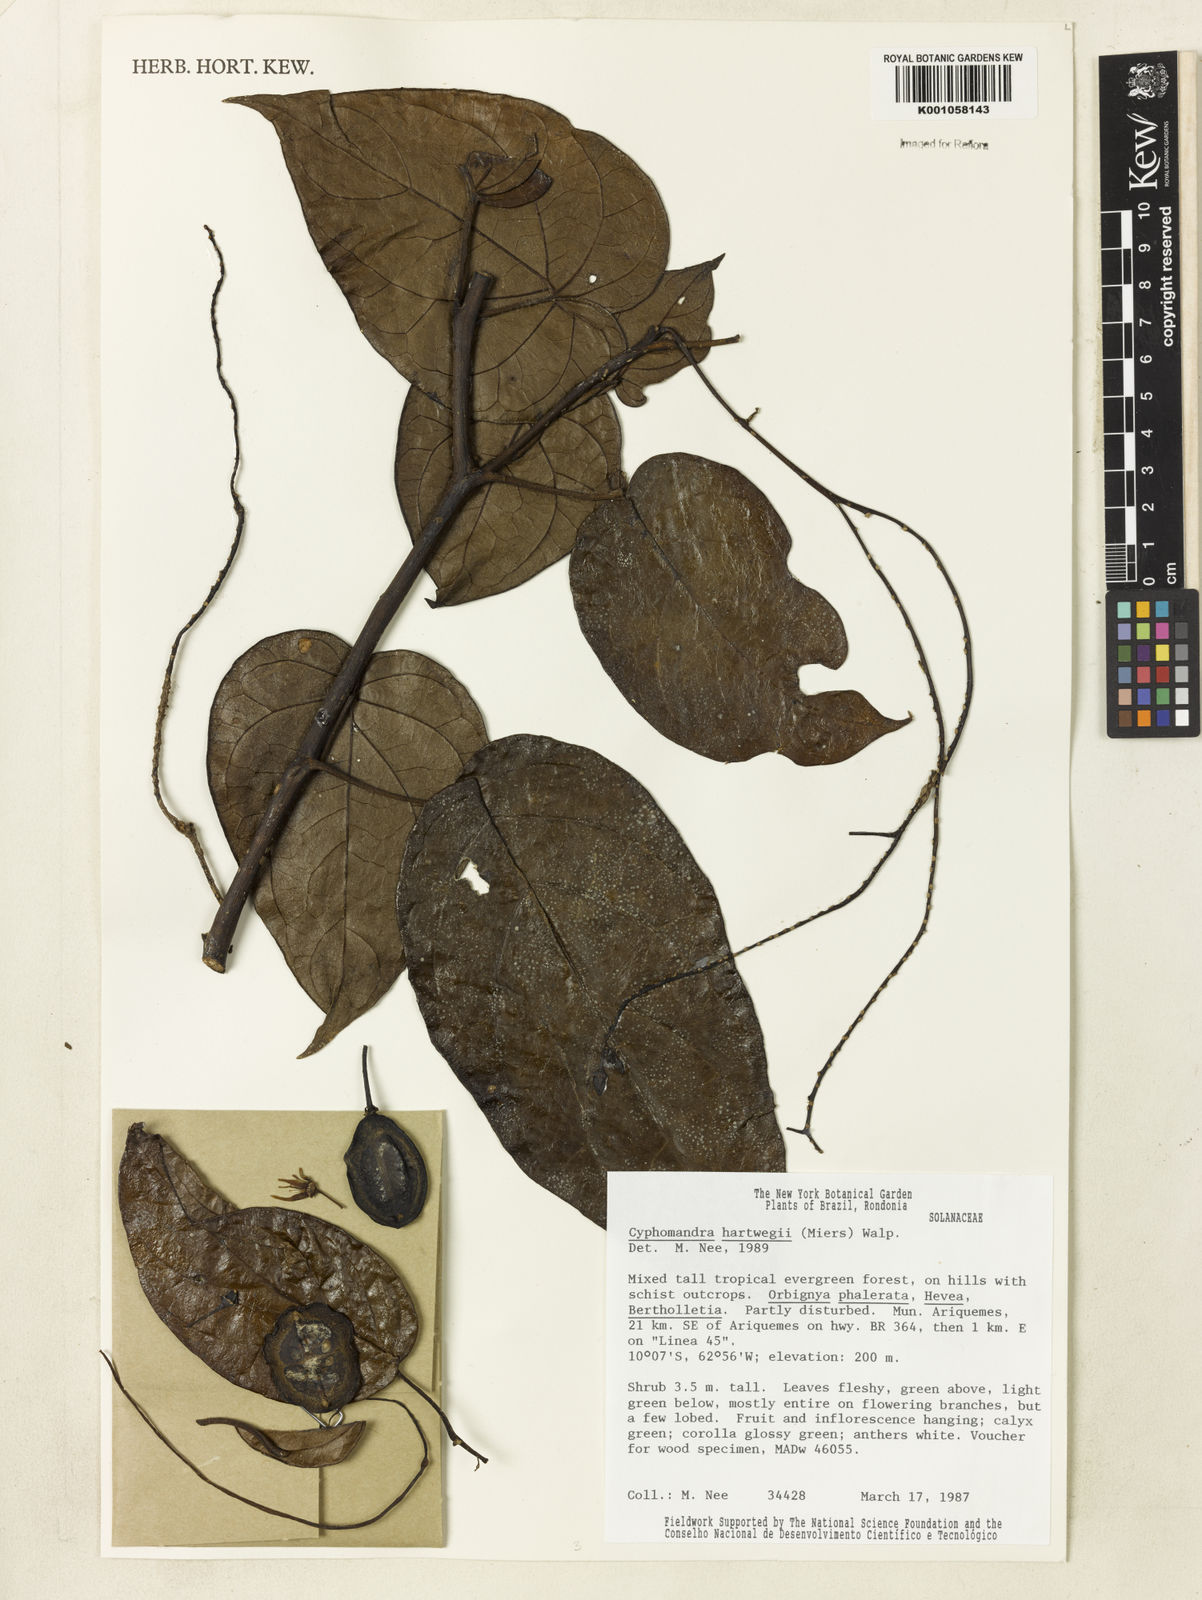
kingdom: Plantae
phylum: Tracheophyta
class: Magnoliopsida
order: Solanales
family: Solanaceae
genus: Solanum
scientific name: Solanum splendens
